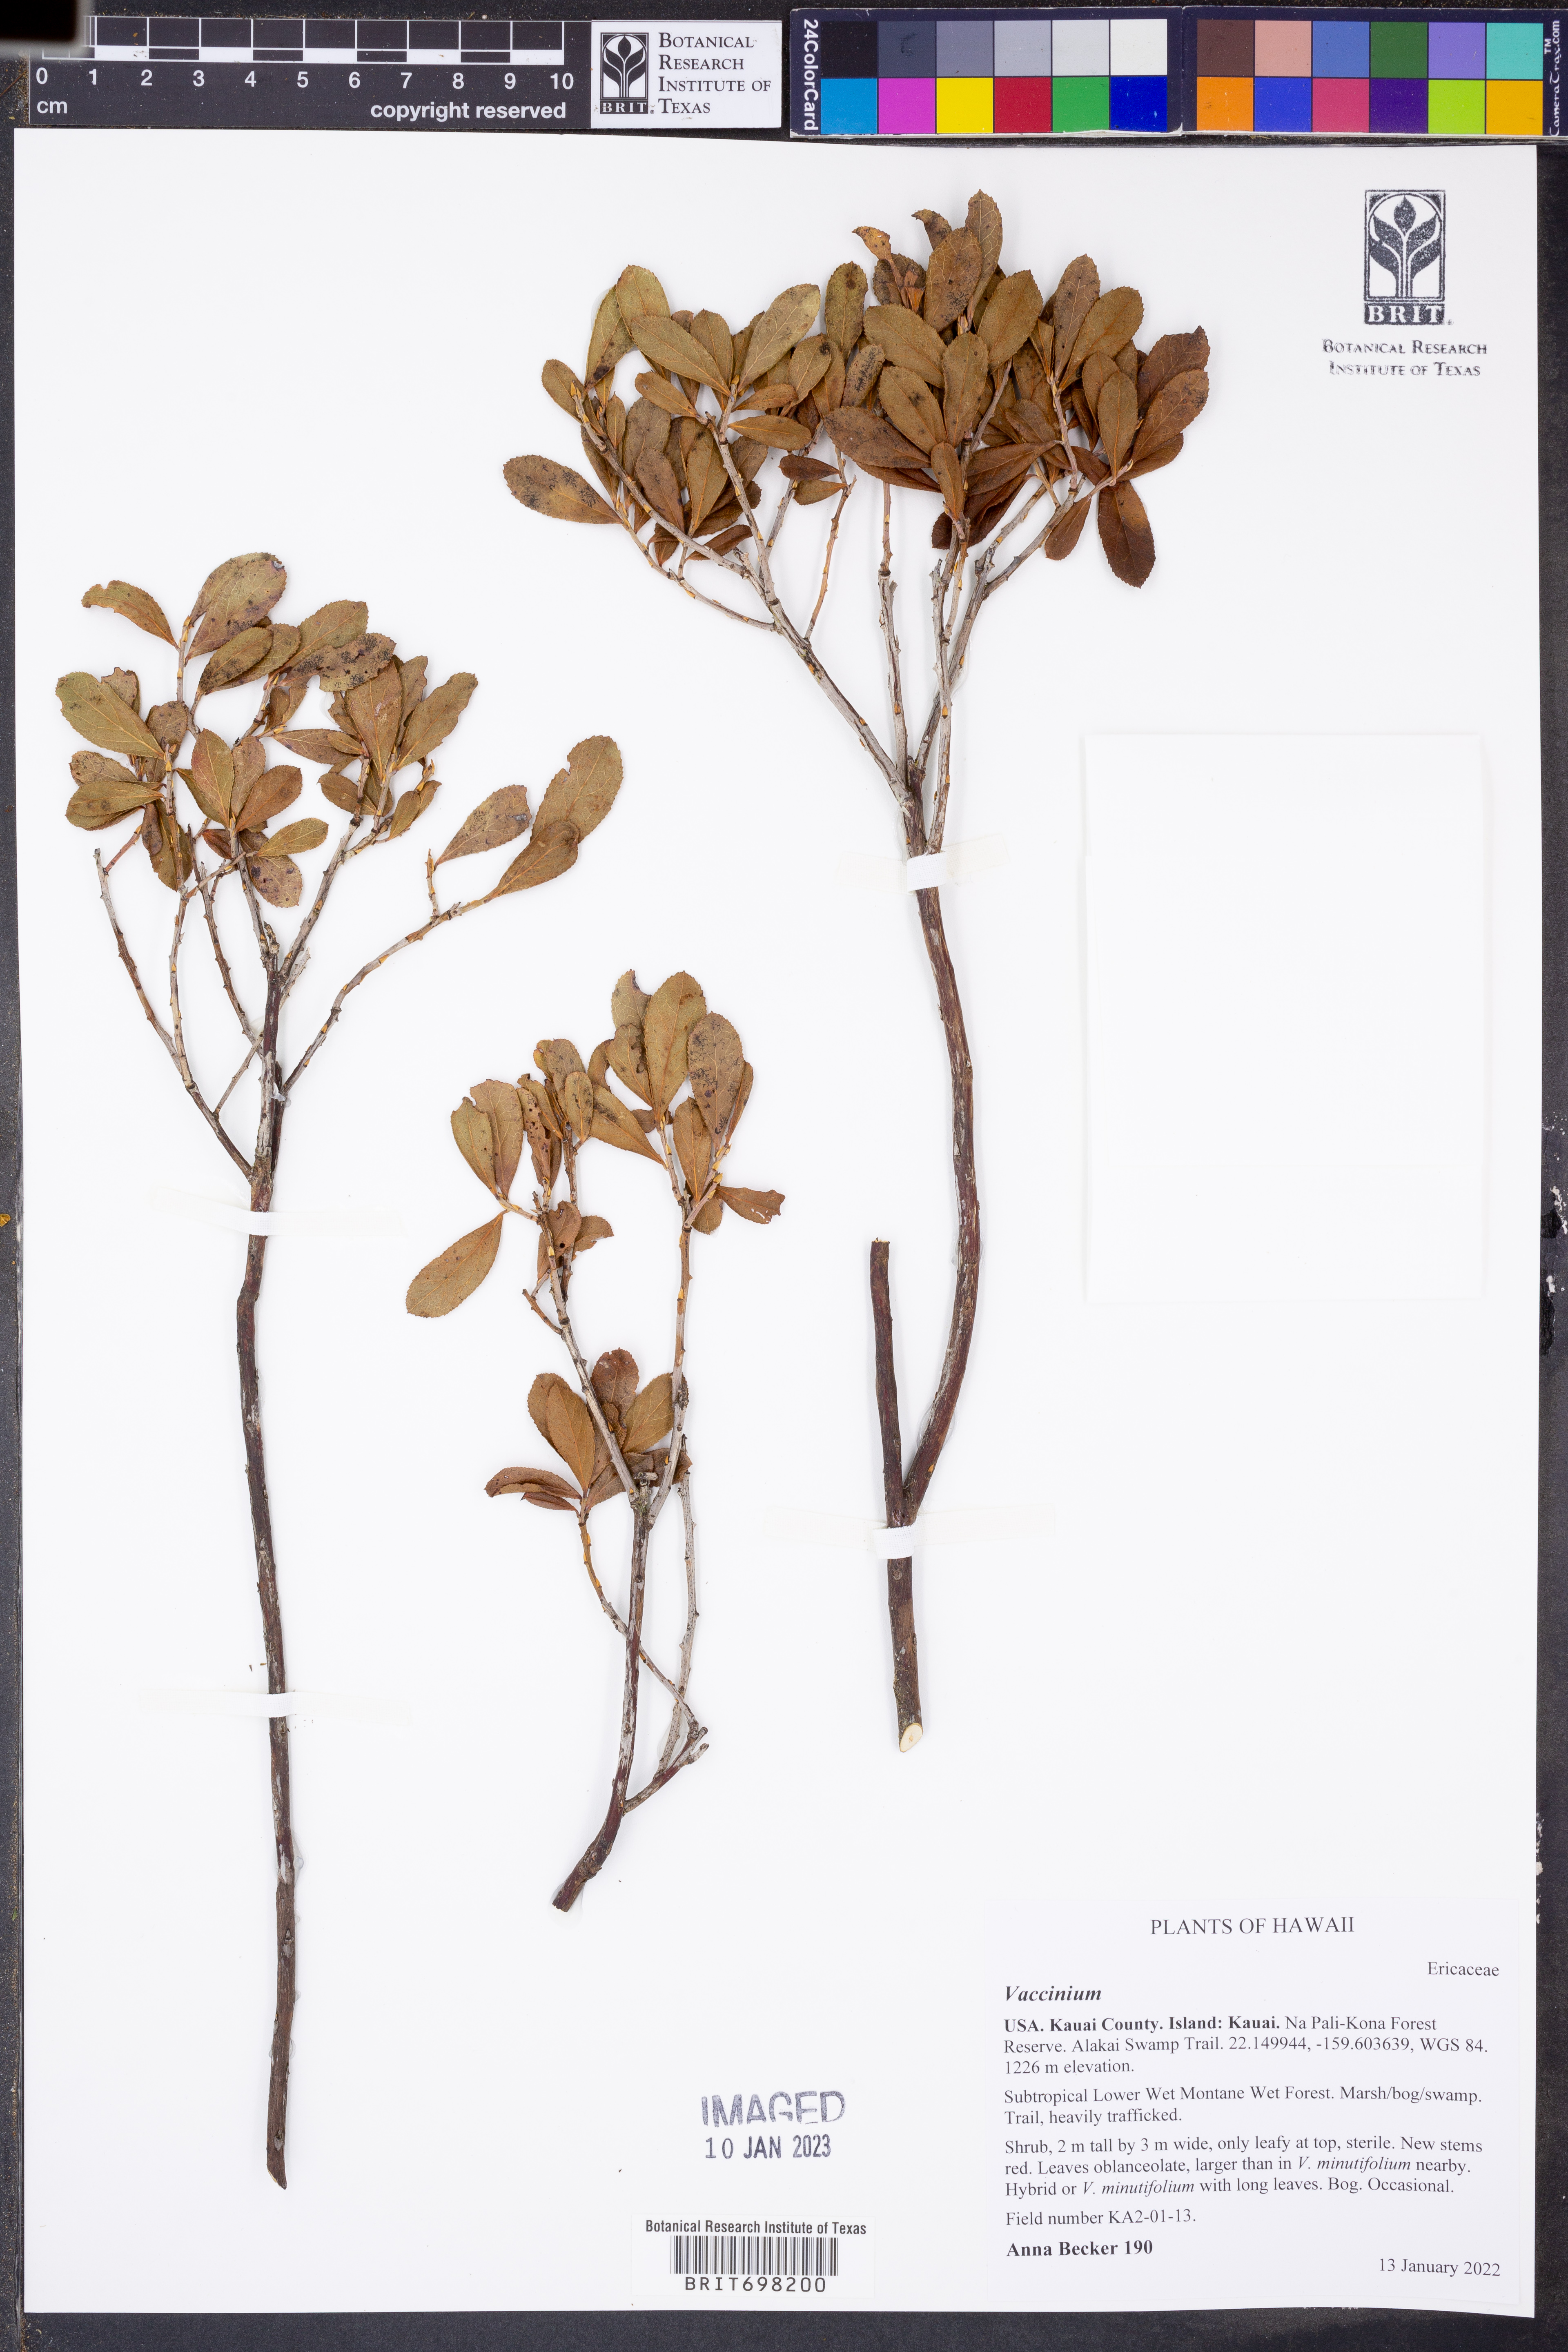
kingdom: Plantae
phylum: Tracheophyta
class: Magnoliopsida
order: Ericales
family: Ericaceae
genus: Vaccinium
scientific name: Vaccinium
